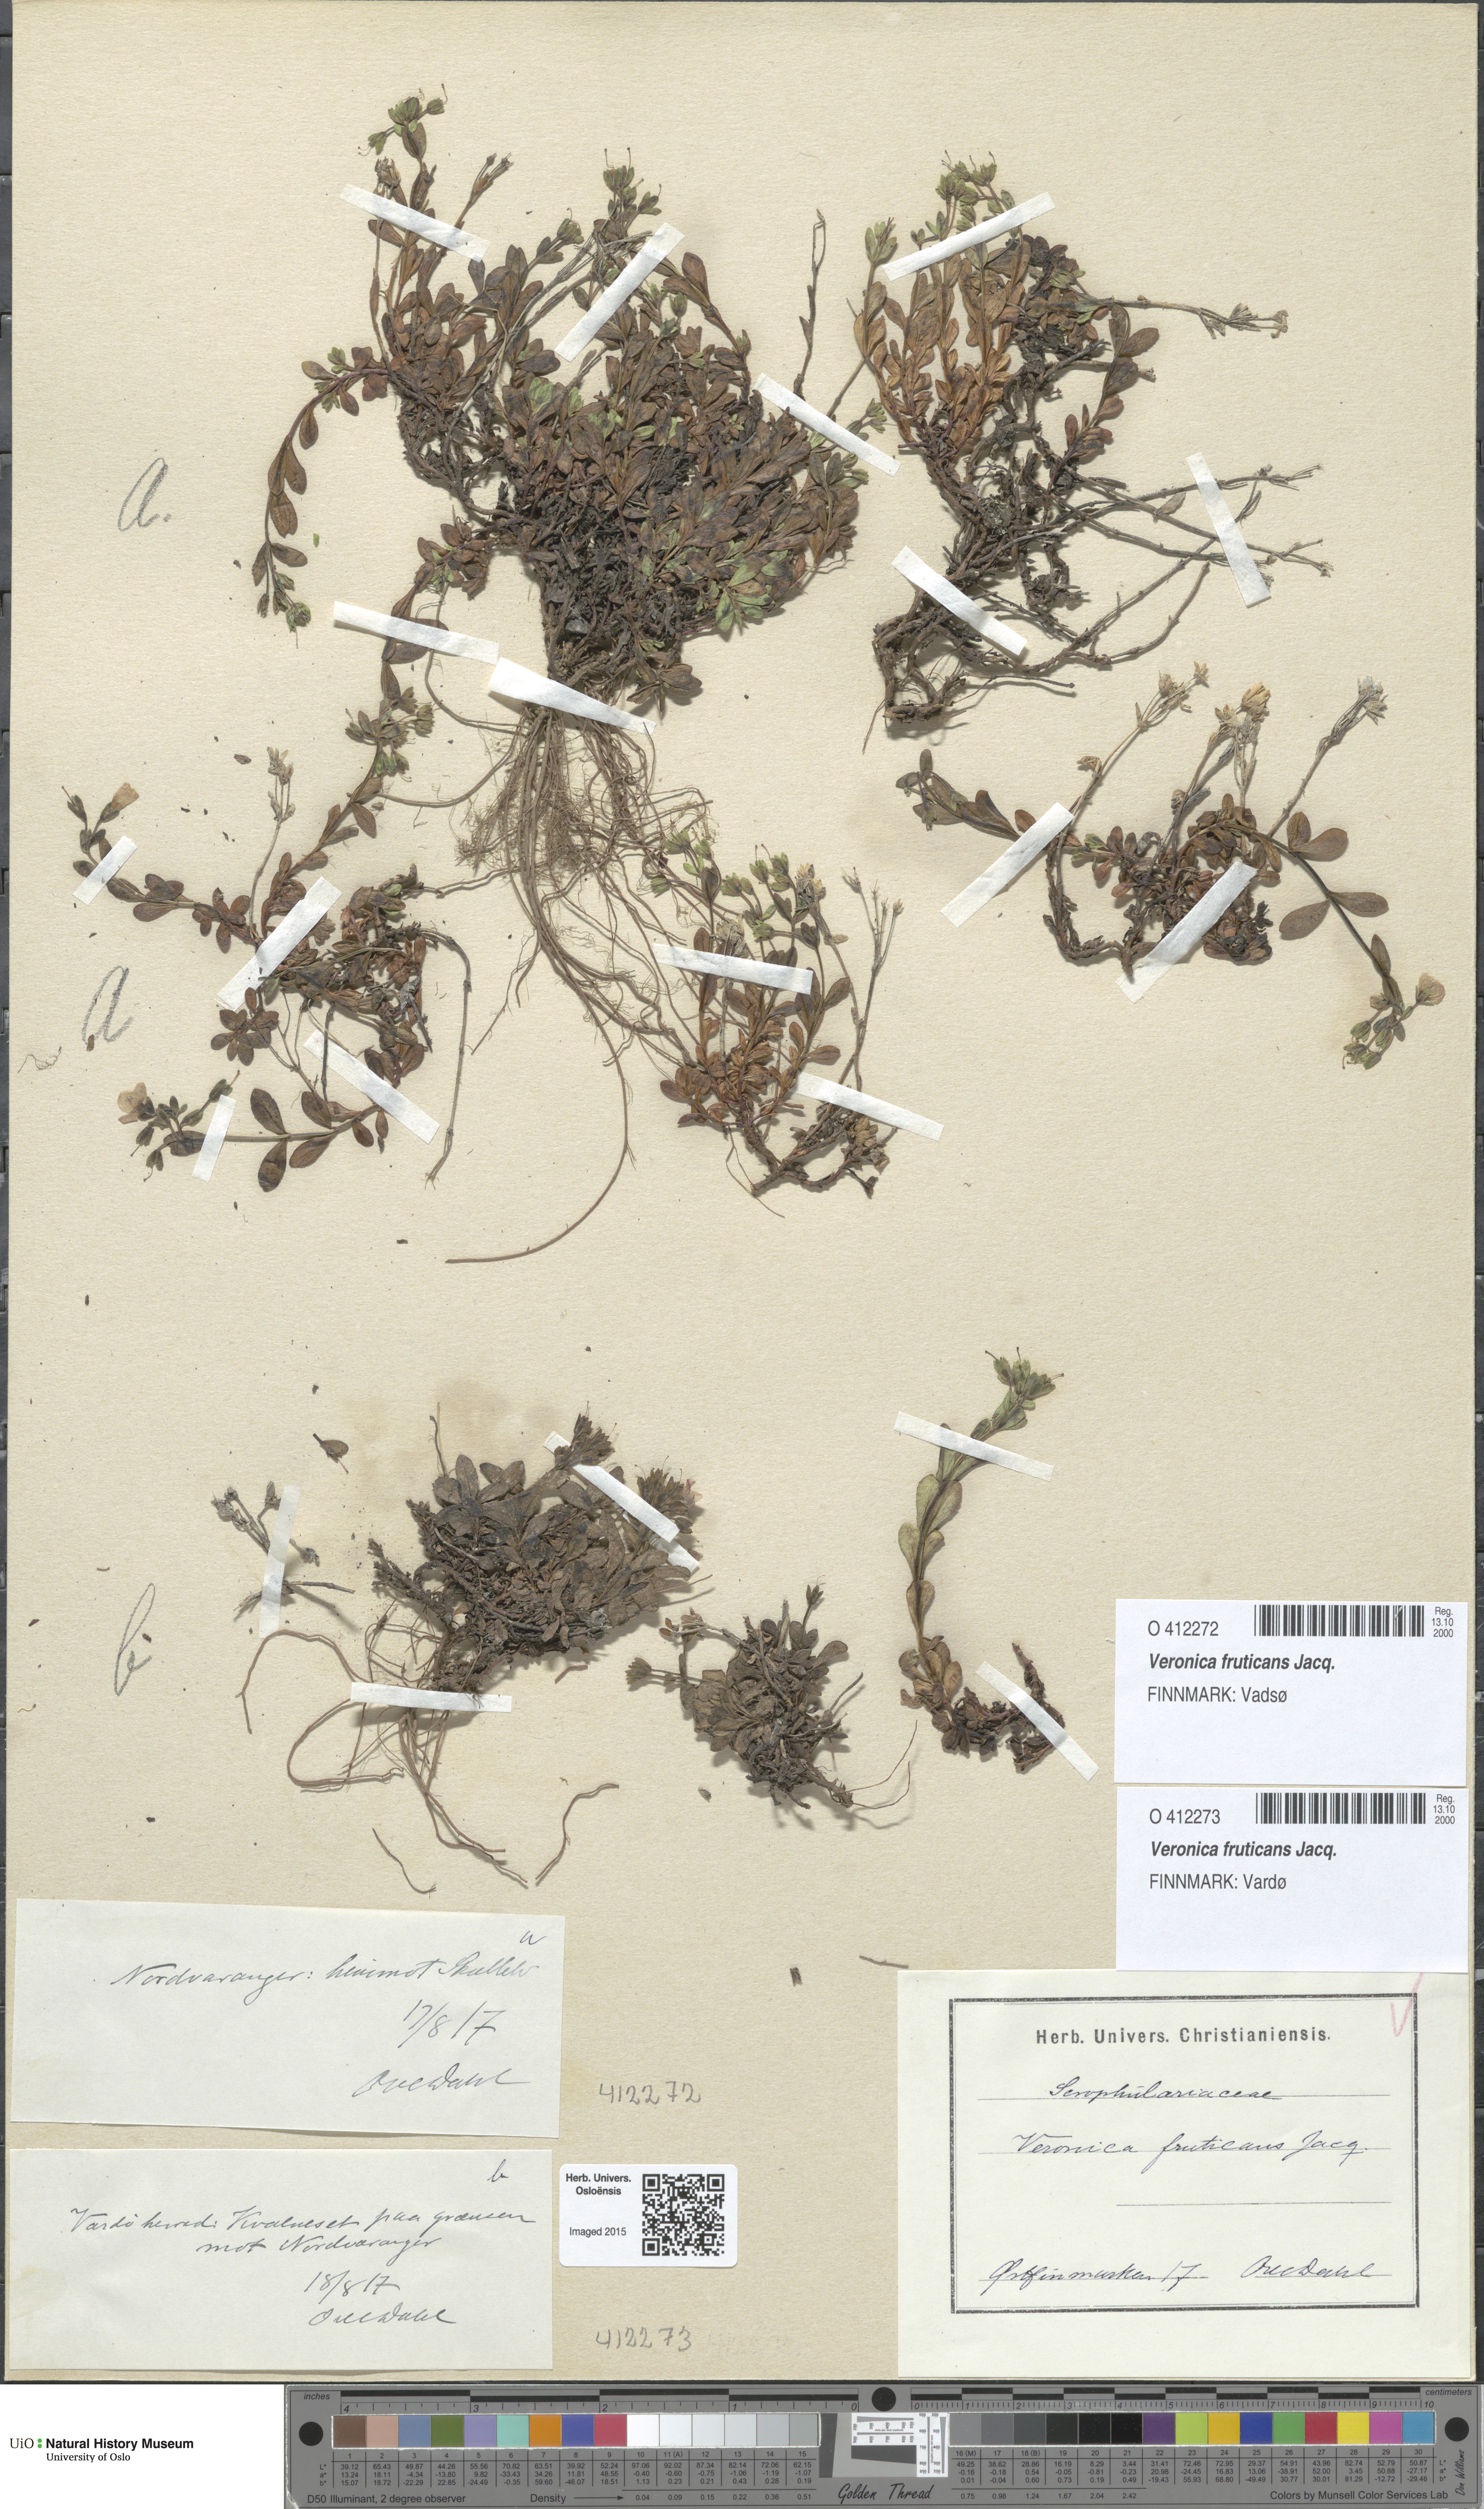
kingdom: Plantae
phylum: Tracheophyta
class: Magnoliopsida
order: Lamiales
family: Plantaginaceae
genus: Veronica
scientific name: Veronica fruticans
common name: Rock speedwell
